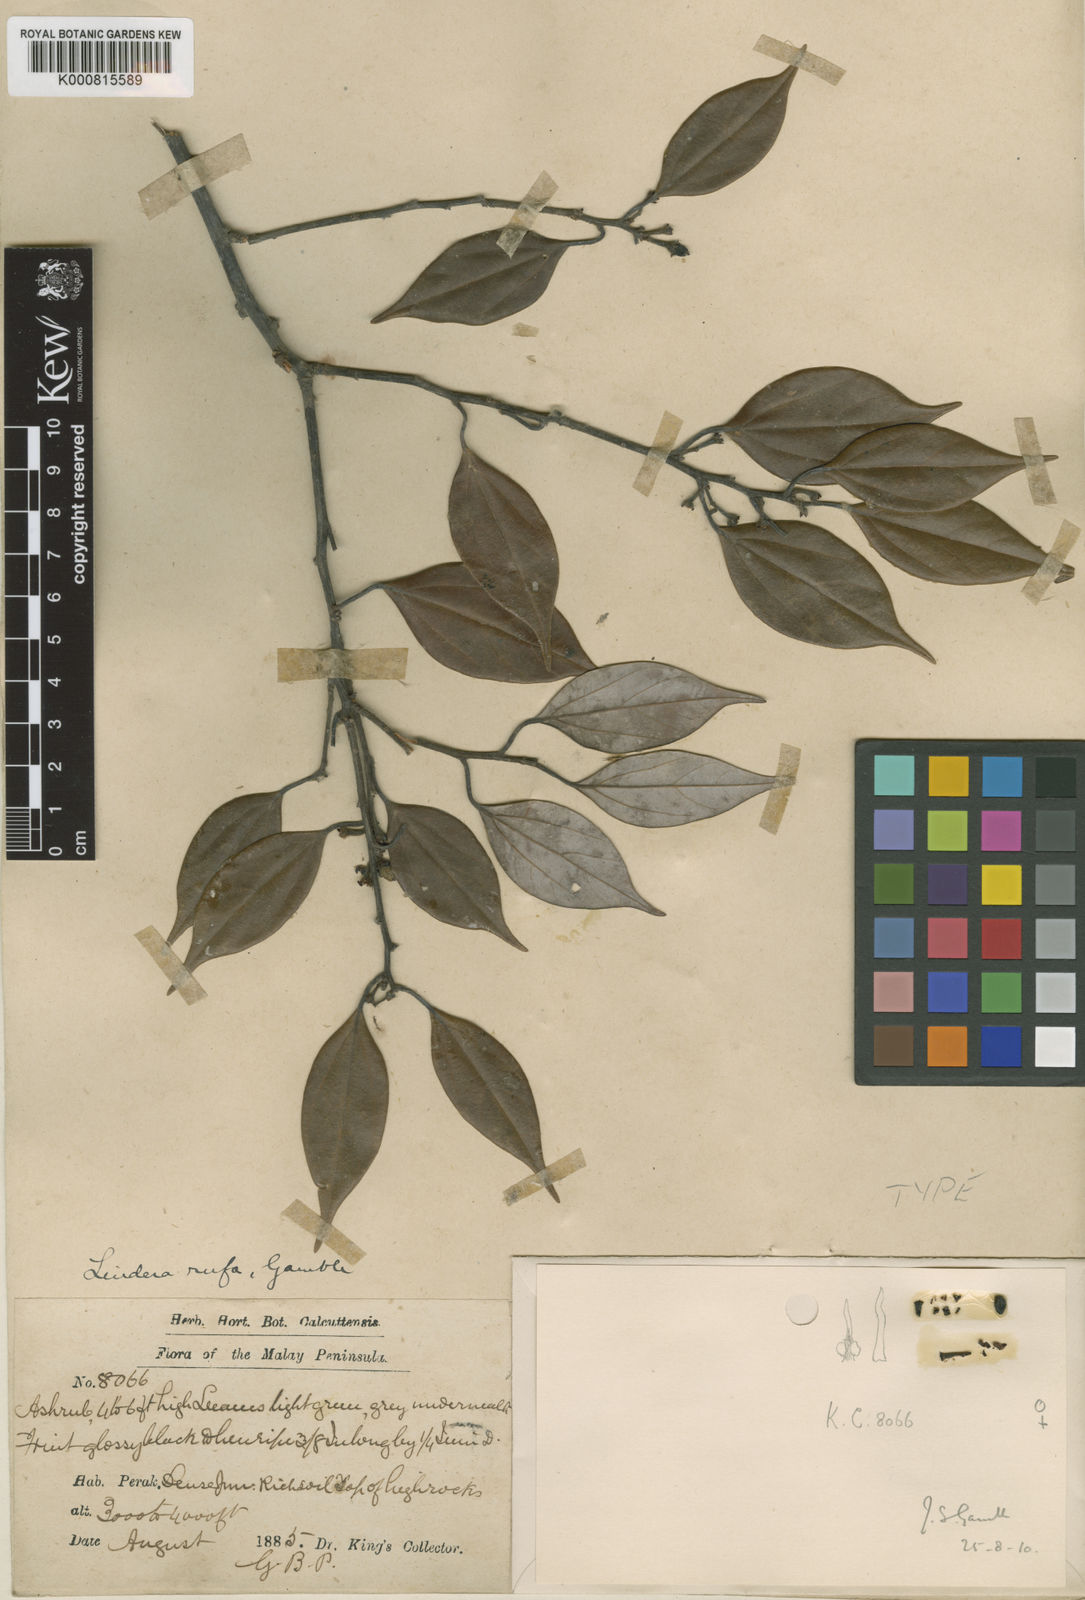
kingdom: Plantae
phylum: Tracheophyta
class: Magnoliopsida
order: Laurales
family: Lauraceae
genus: Lindera
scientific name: Lindera rufa
